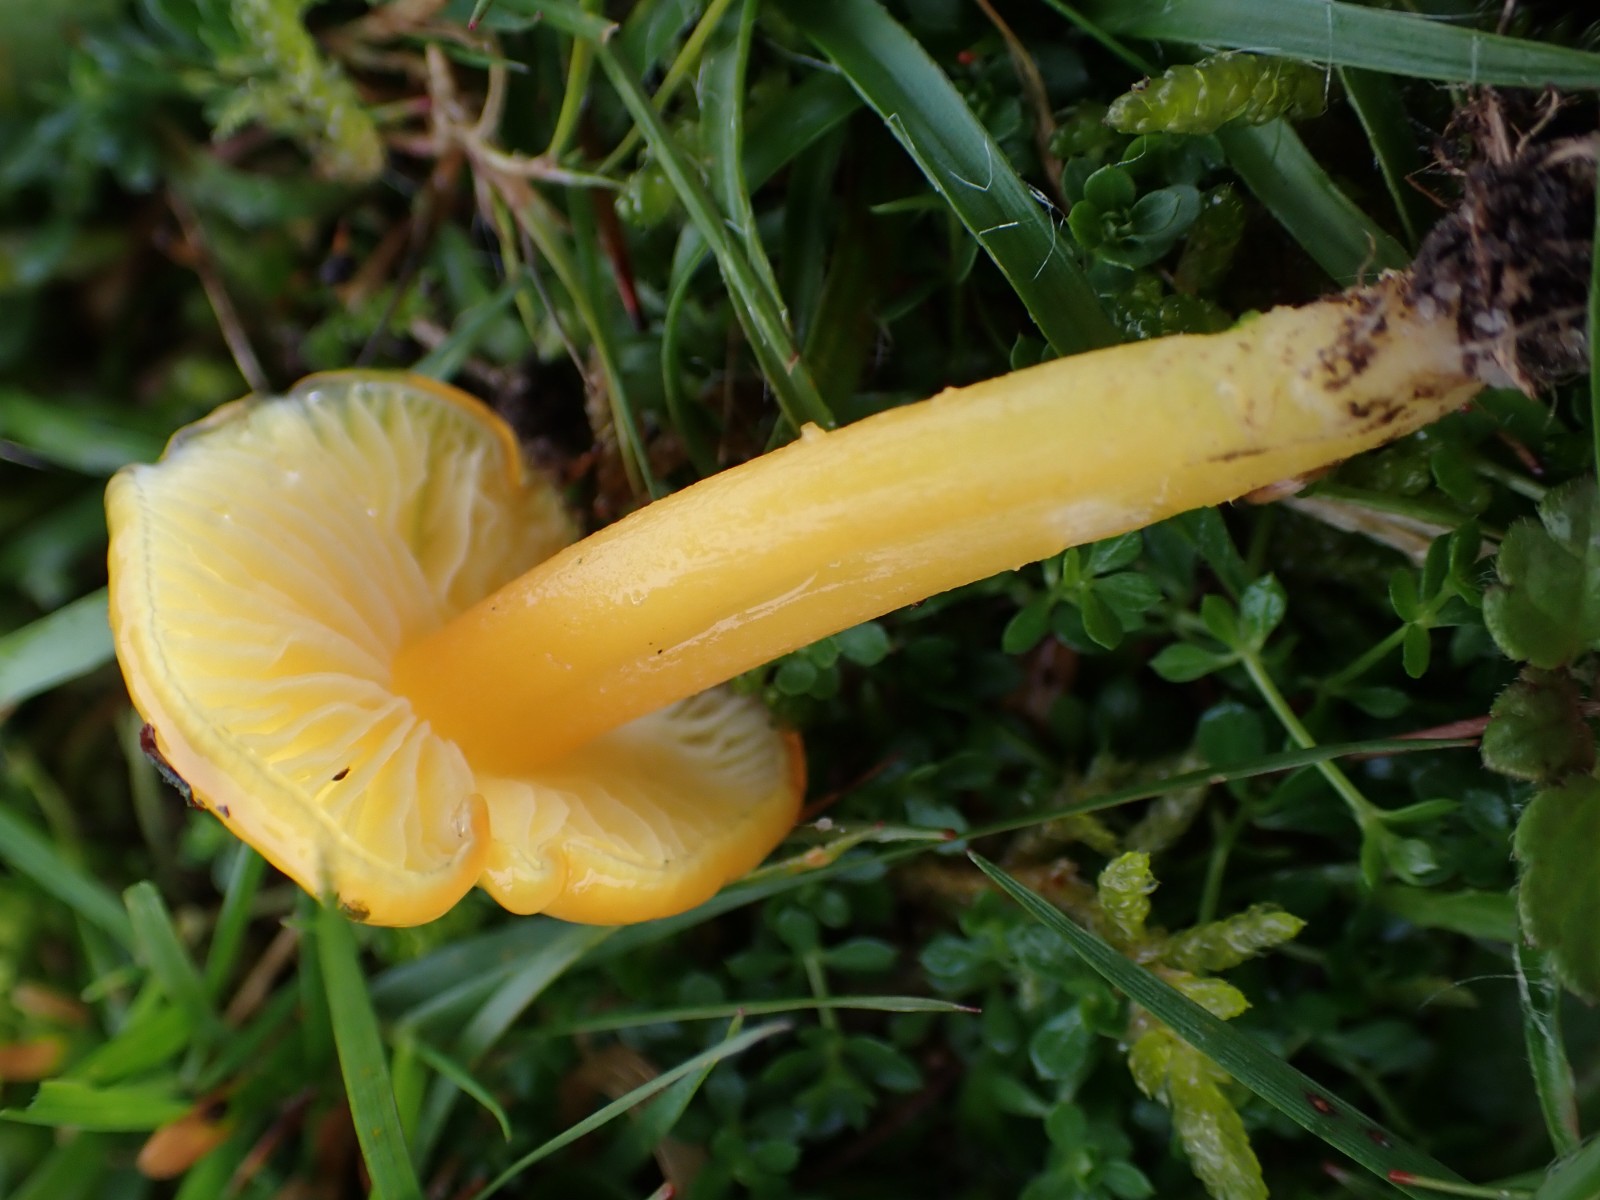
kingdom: Fungi
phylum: Basidiomycota
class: Agaricomycetes
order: Agaricales
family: Hygrophoraceae
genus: Hygrocybe
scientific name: Hygrocybe chlorophana
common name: gul vokshat
